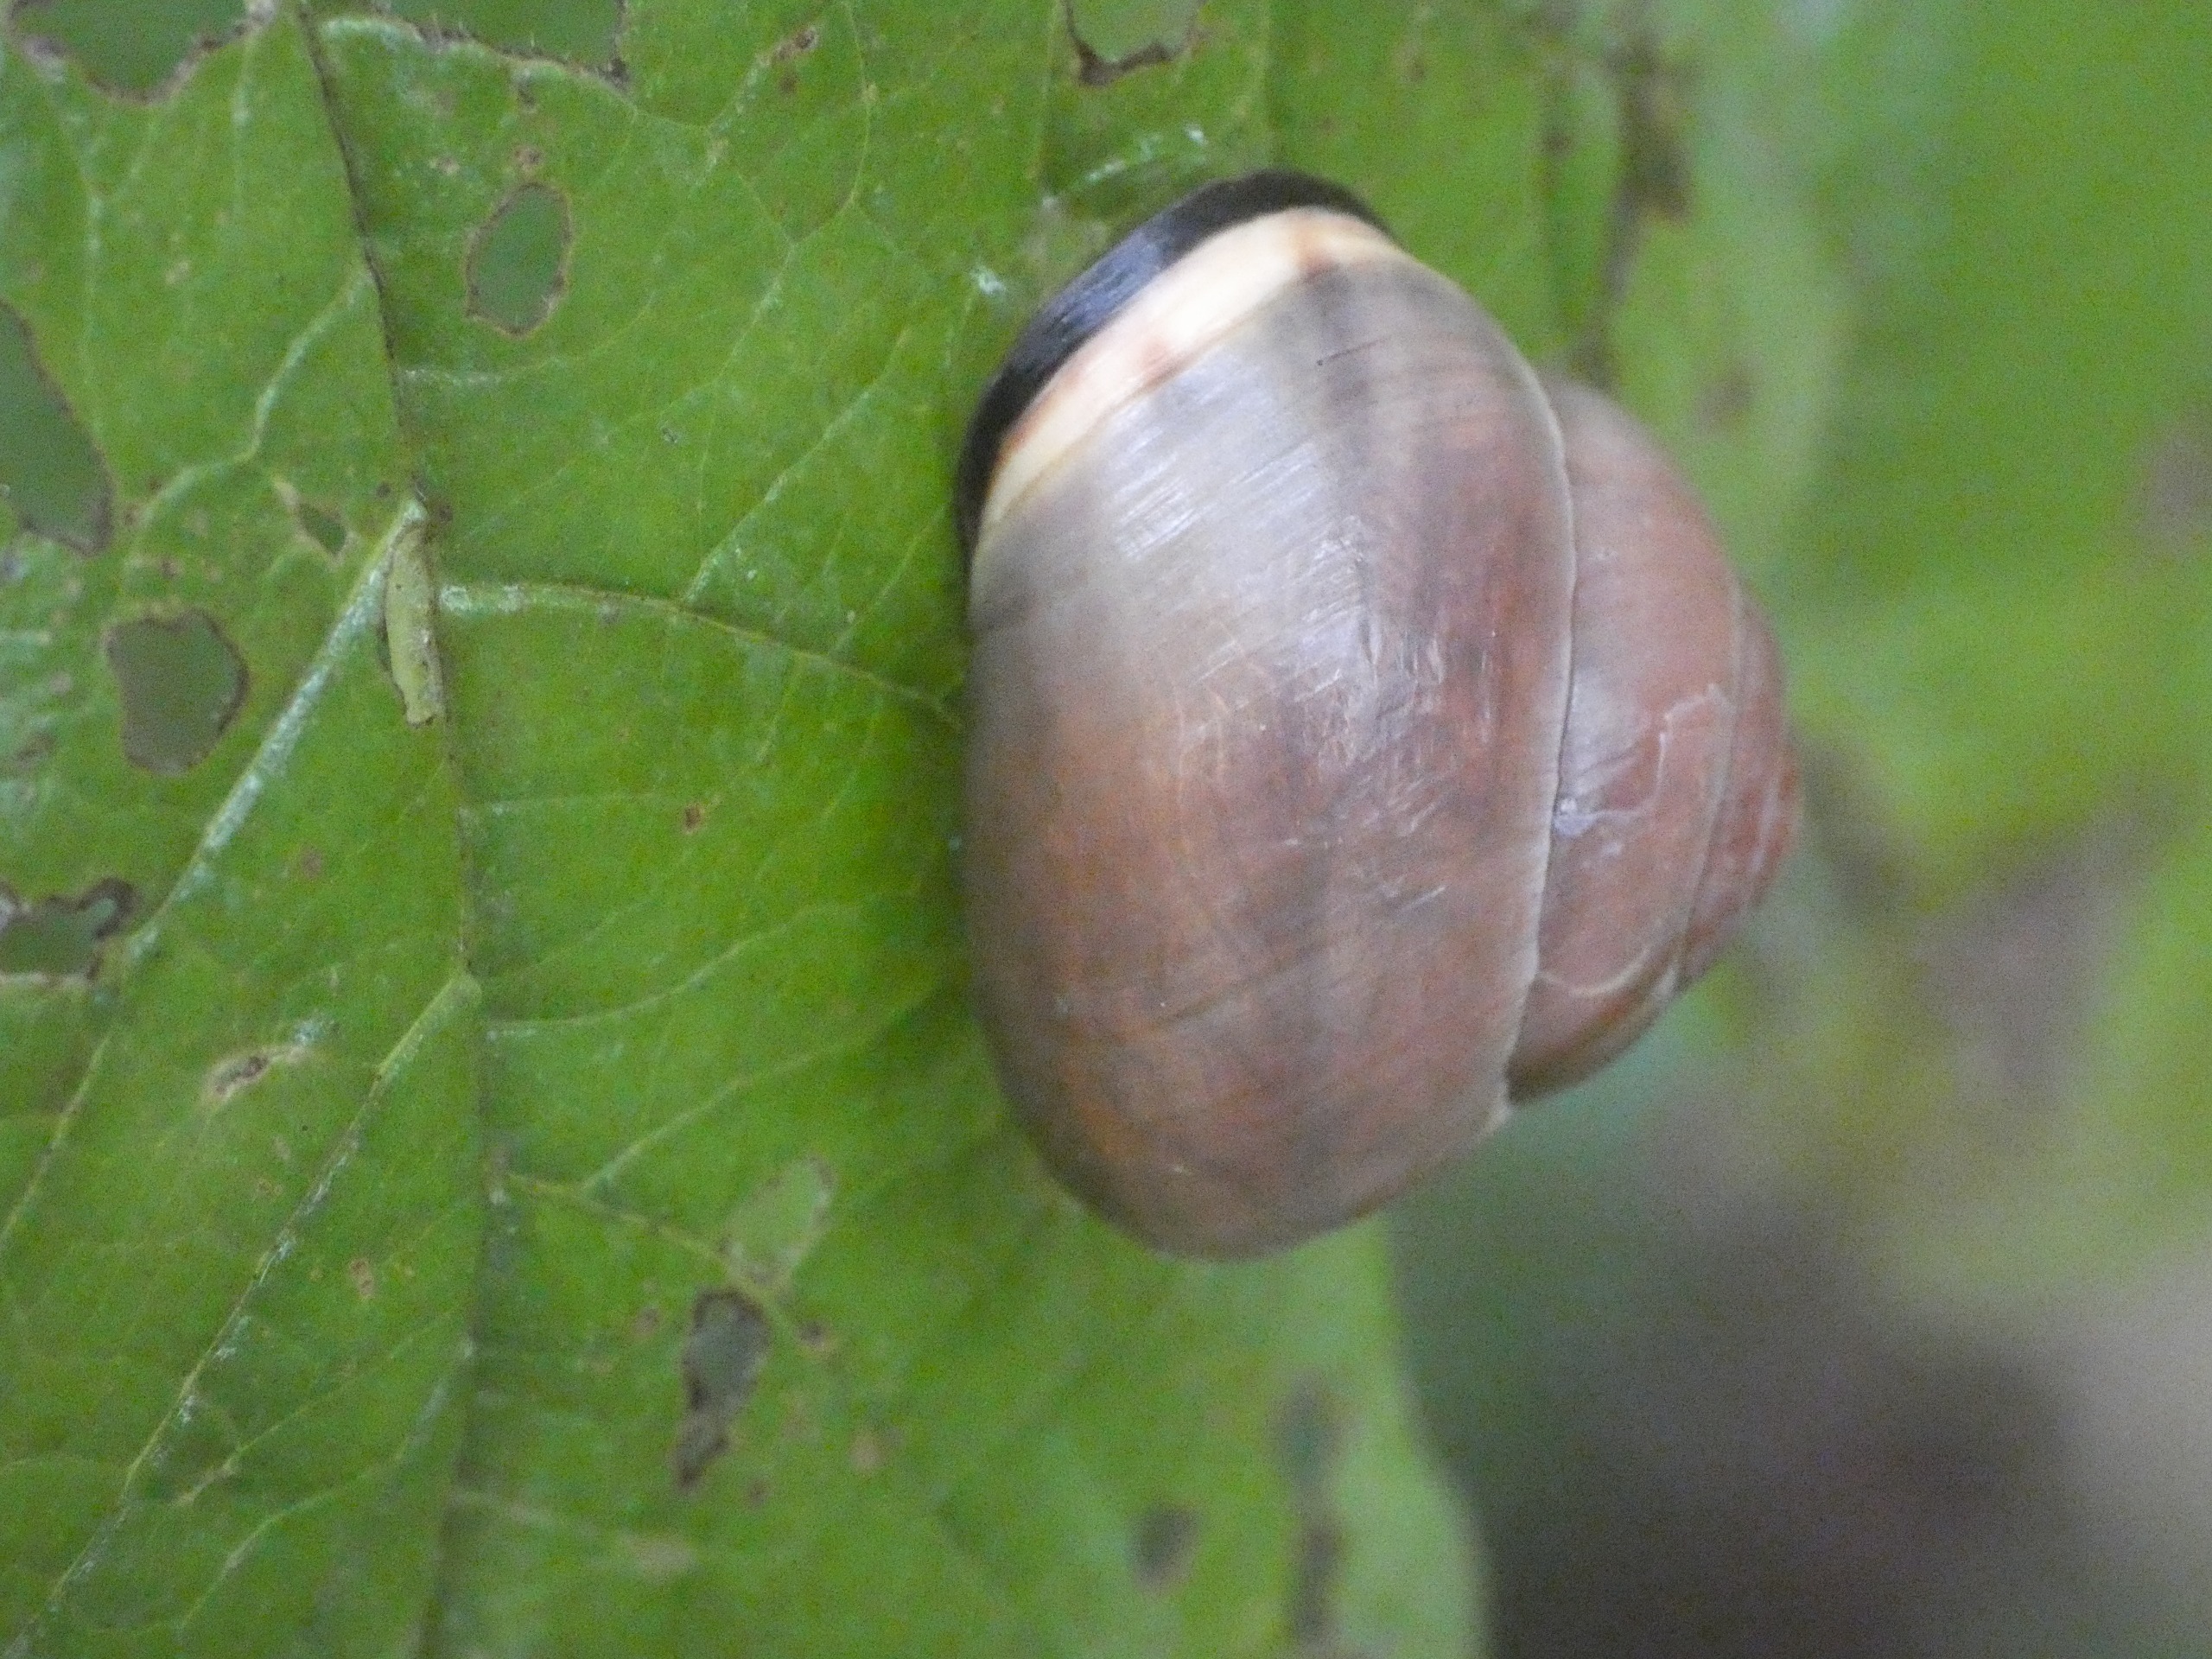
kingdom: Animalia
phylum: Mollusca
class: Gastropoda
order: Stylommatophora
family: Helicidae
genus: Cepaea
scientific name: Cepaea nemoralis
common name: Lundsnegl
